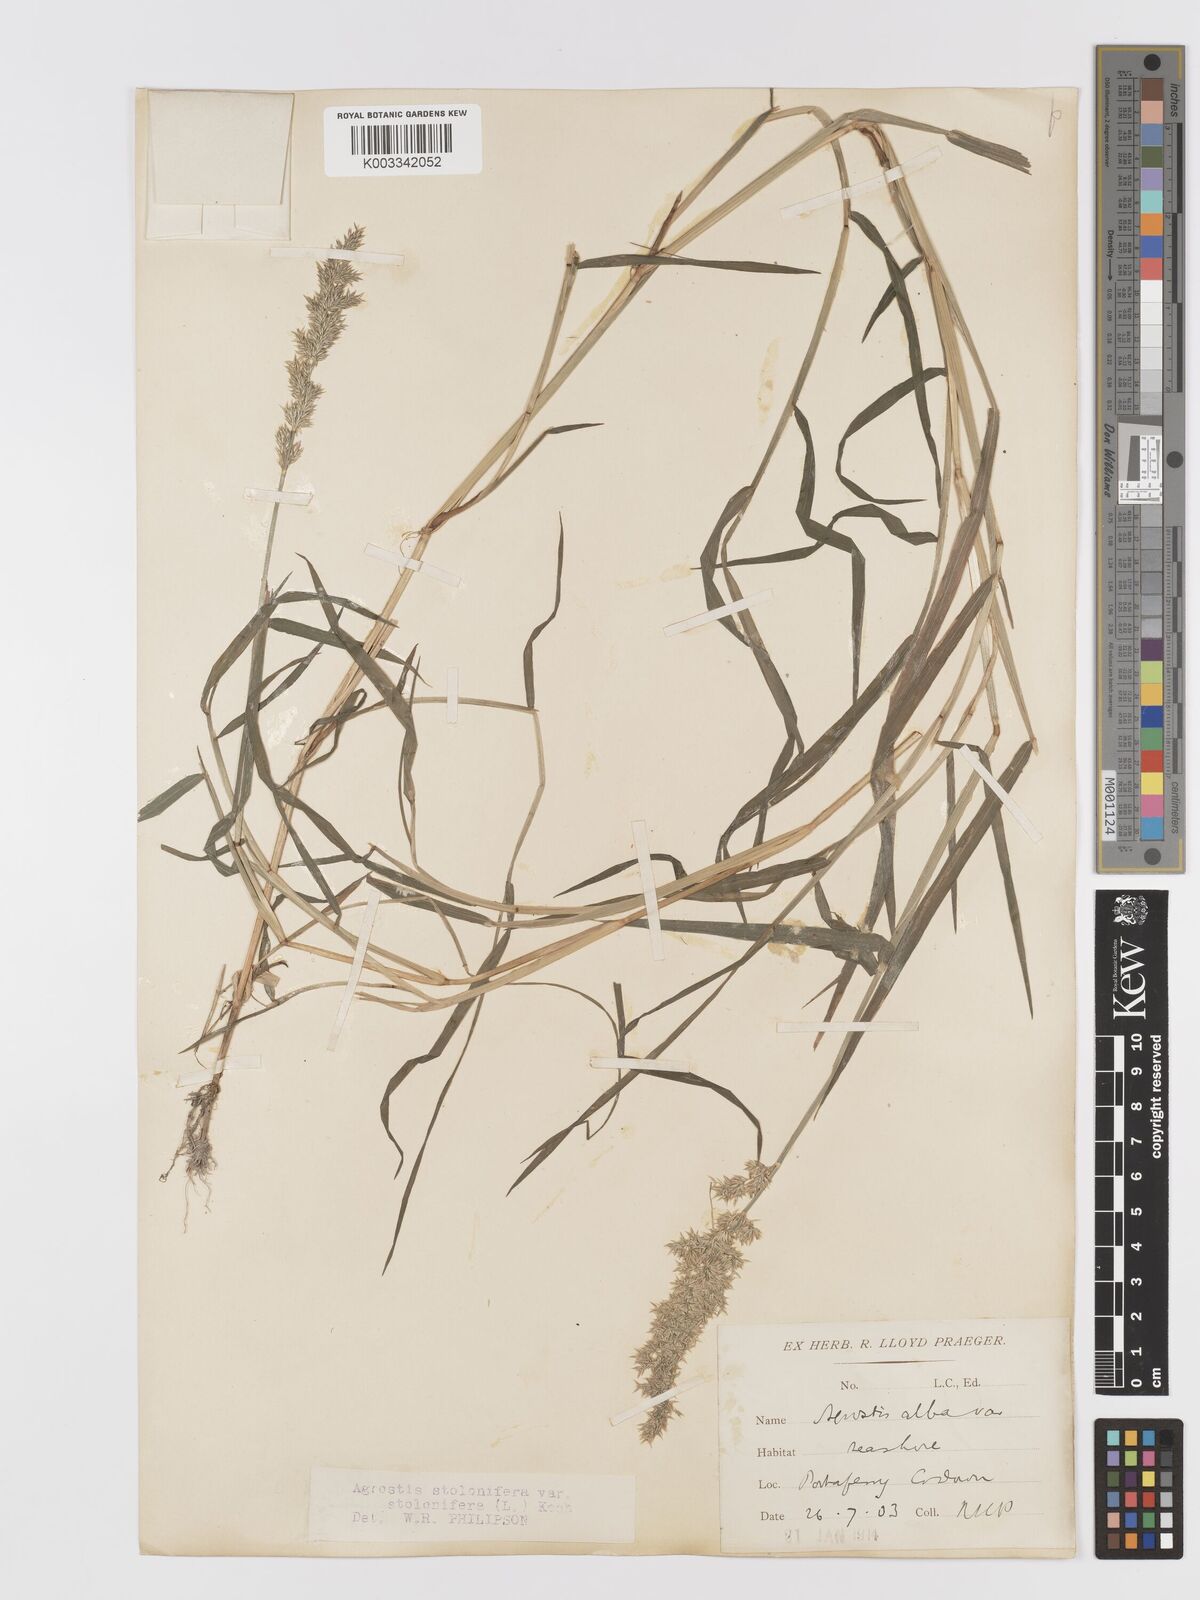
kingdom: Plantae
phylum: Tracheophyta
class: Liliopsida
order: Poales
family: Poaceae
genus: Agrostis
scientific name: Agrostis stolonifera
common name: Creeping bentgrass
